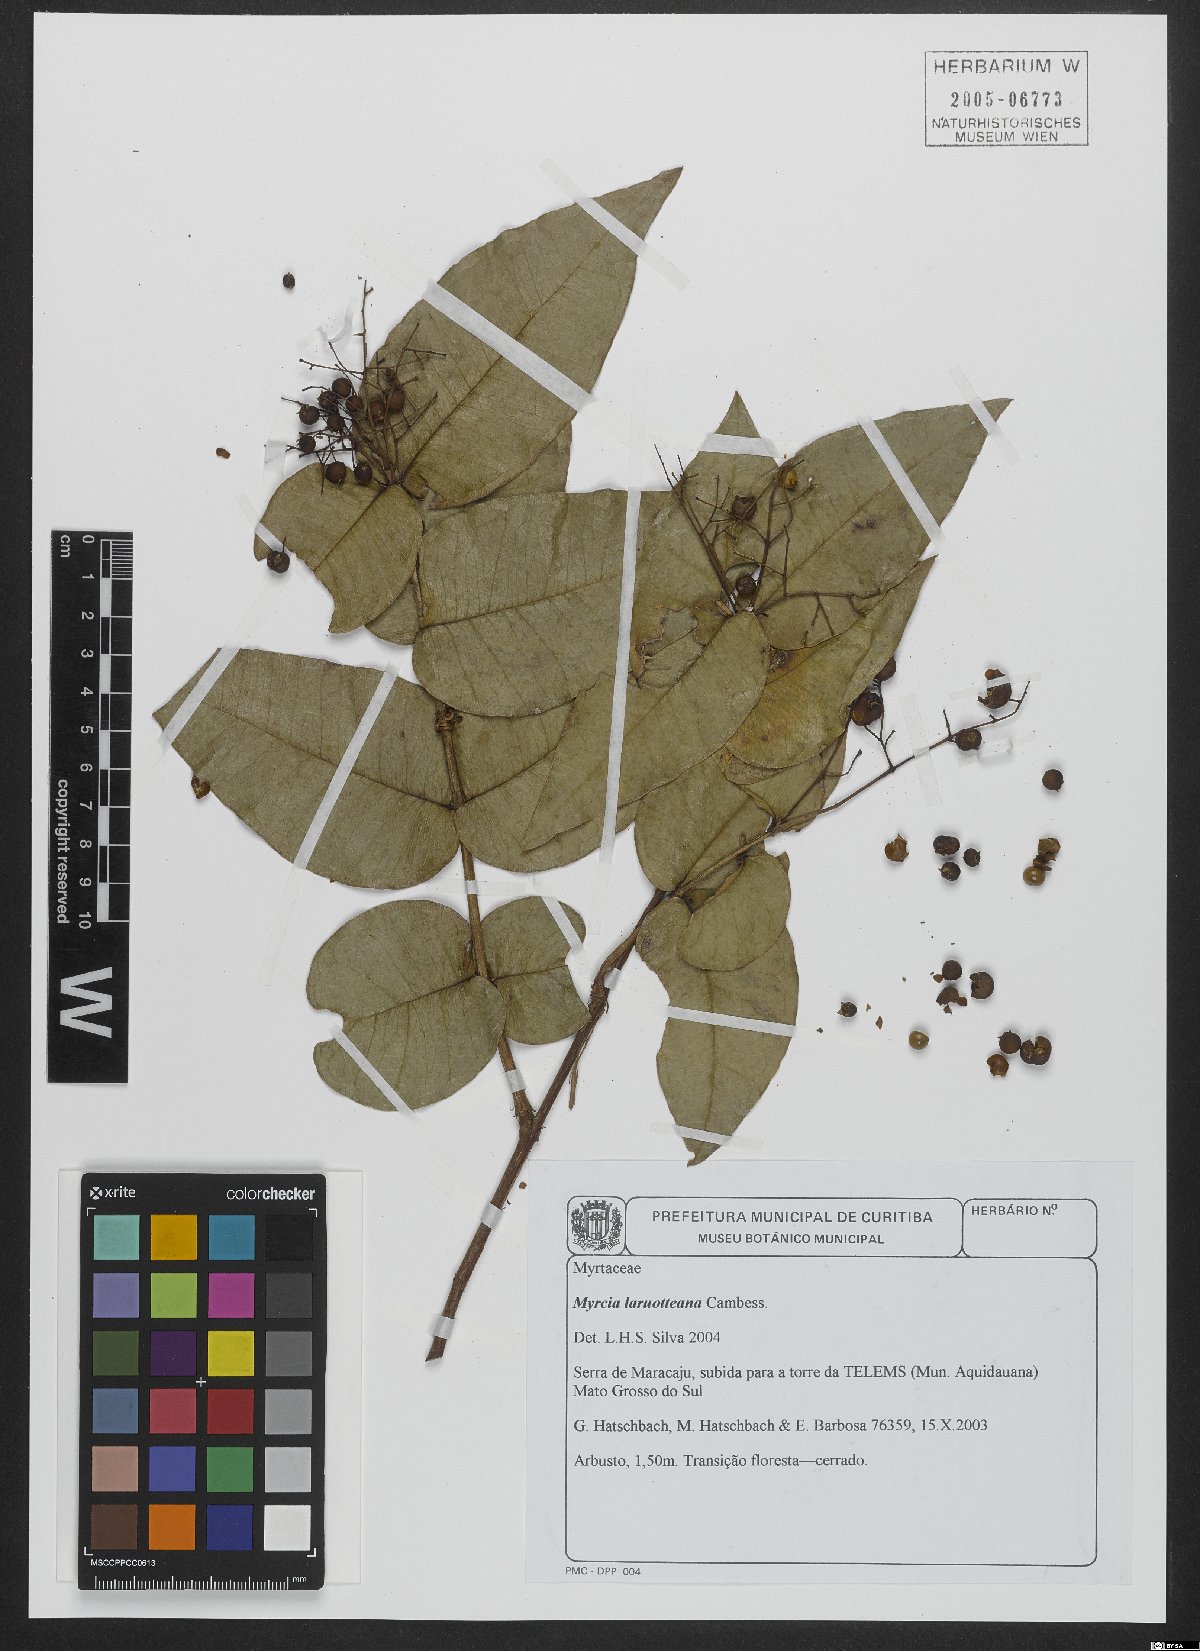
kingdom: Plantae
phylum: Tracheophyta
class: Magnoliopsida
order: Myrtales
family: Myrtaceae
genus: Myrcia
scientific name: Myrcia laruotteana
